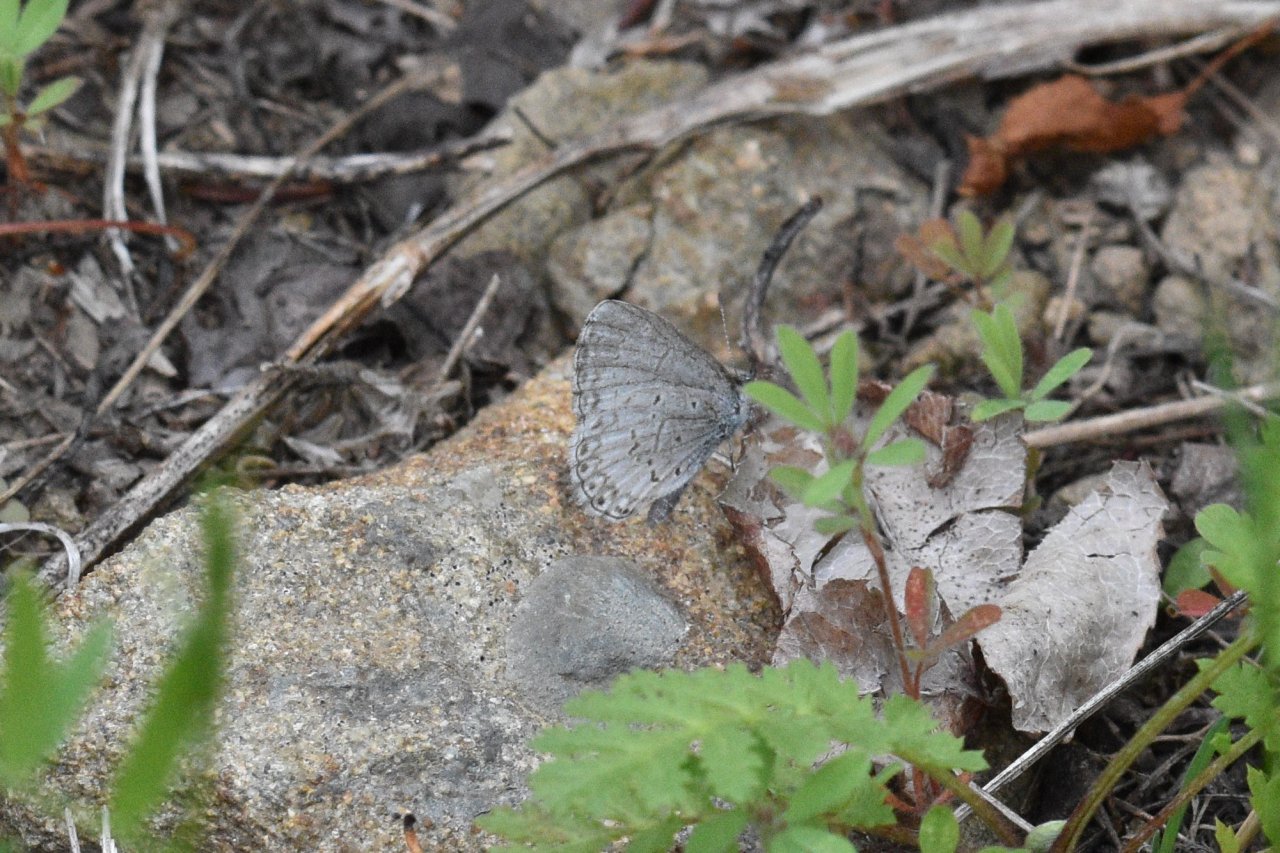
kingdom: Animalia
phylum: Arthropoda
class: Insecta
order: Lepidoptera
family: Lycaenidae
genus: Celastrina
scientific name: Celastrina lucia
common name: Northern Spring Azure
